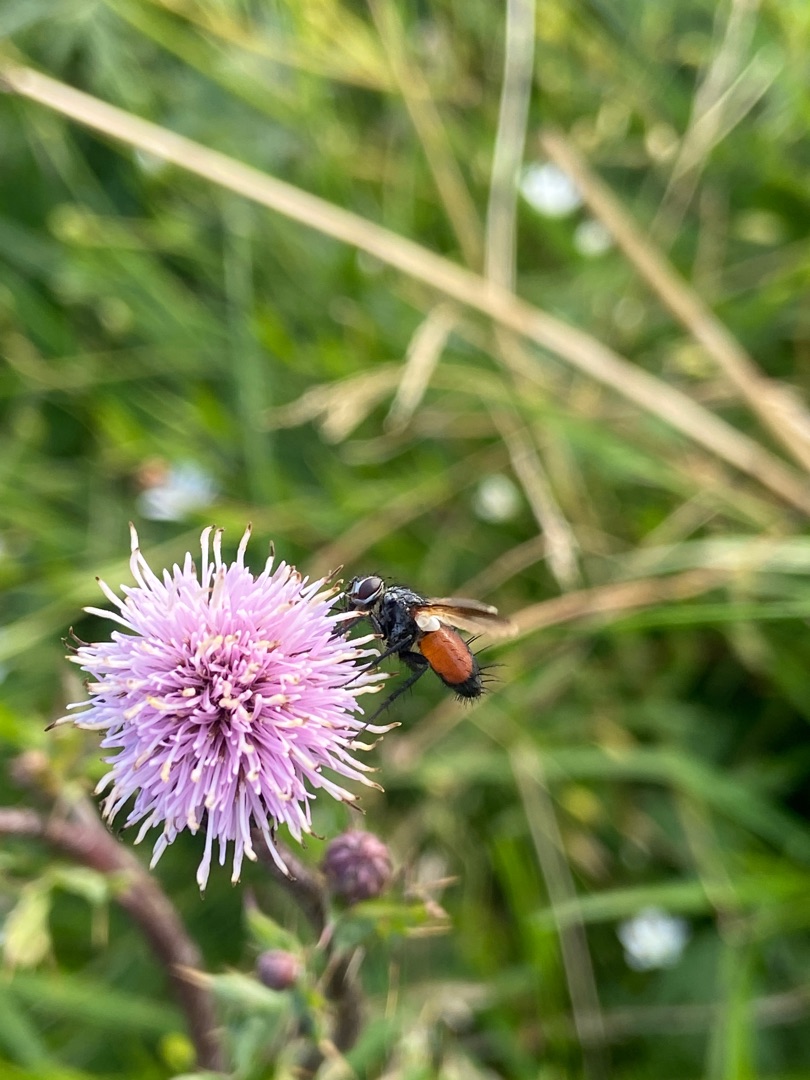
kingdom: Animalia
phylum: Arthropoda
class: Insecta
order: Diptera
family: Tachinidae
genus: Eriothrix
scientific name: Eriothrix rufomaculatus
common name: Rød snylteflue
